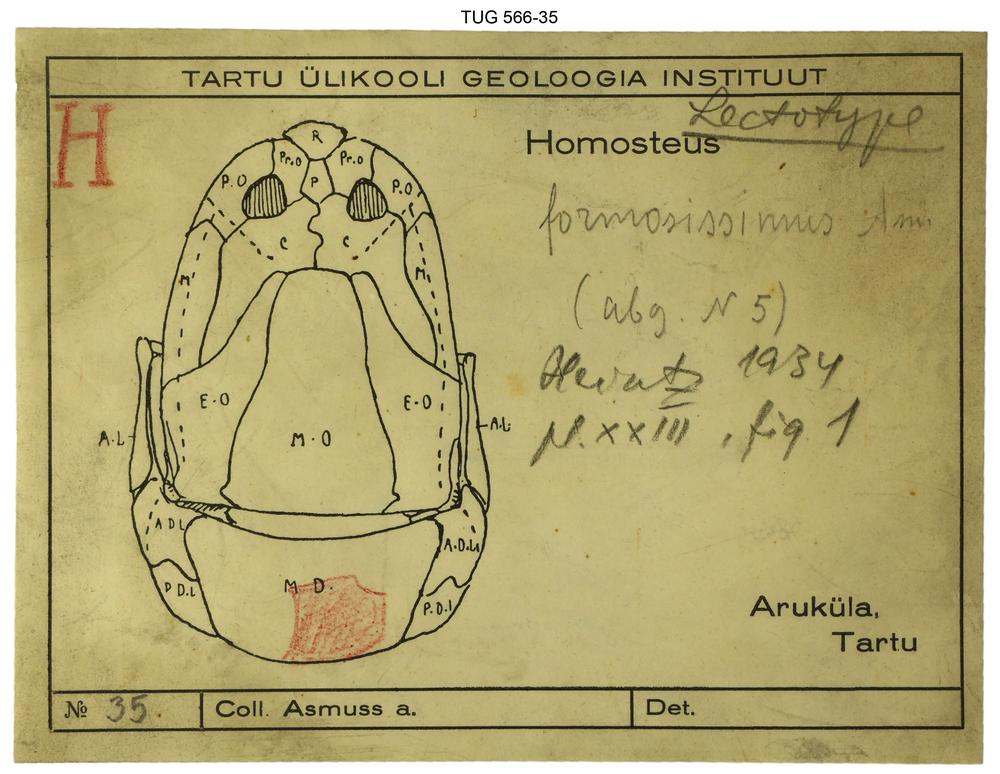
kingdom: Animalia
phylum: Chordata
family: Homostiidae
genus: Homostius
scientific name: Homostius
